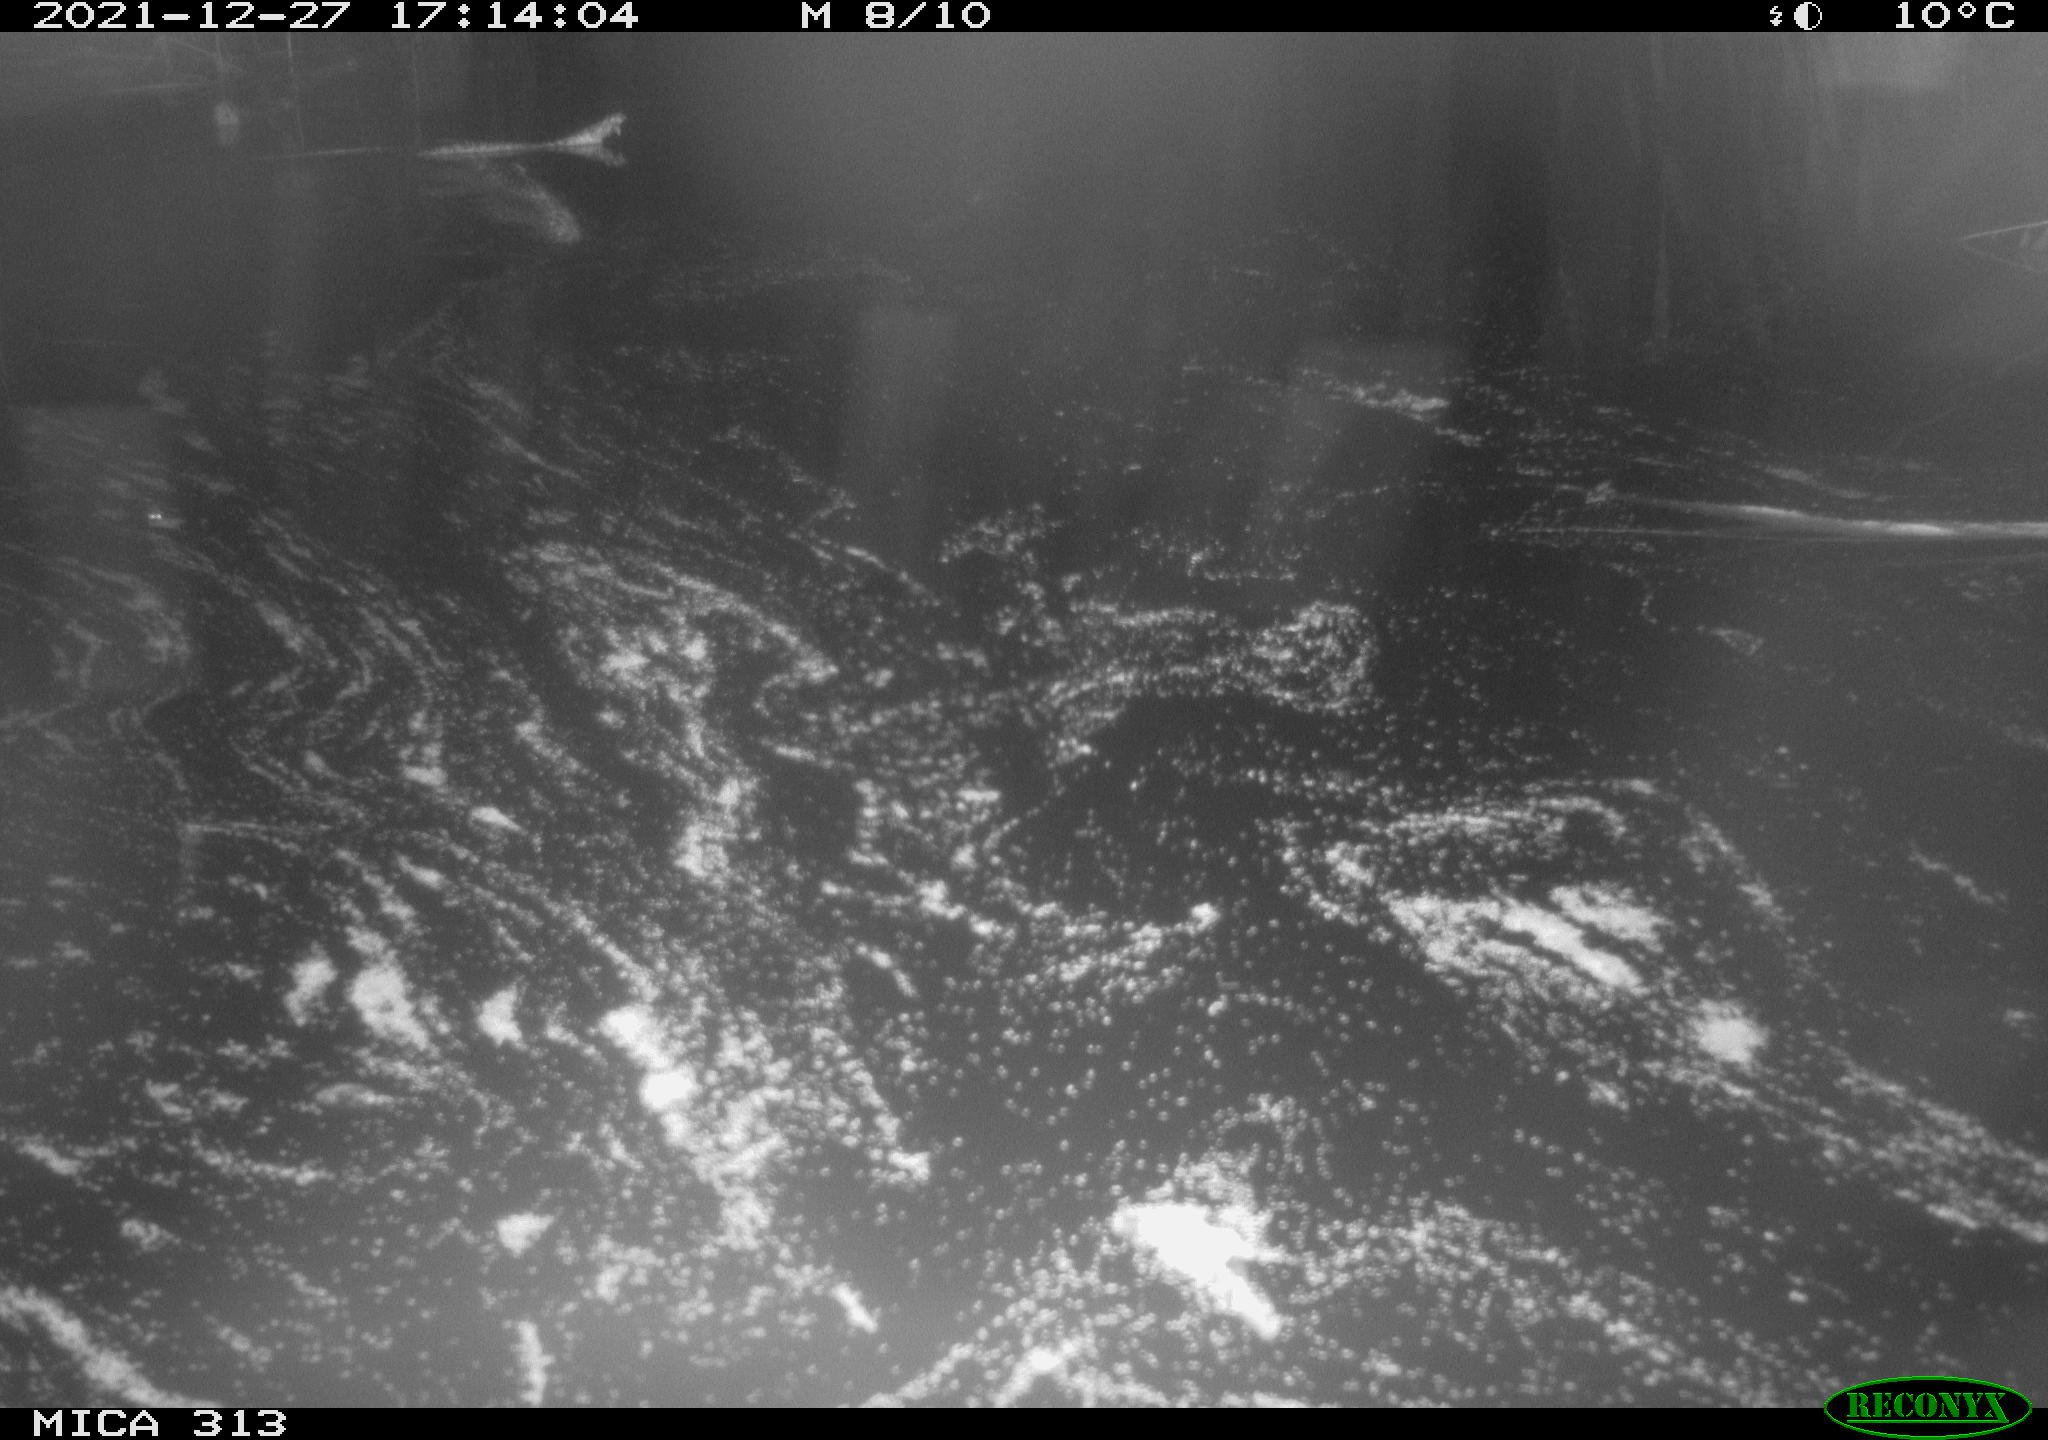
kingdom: Animalia
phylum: Chordata
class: Aves
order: Gruiformes
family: Rallidae
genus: Gallinula
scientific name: Gallinula chloropus
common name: Common moorhen
